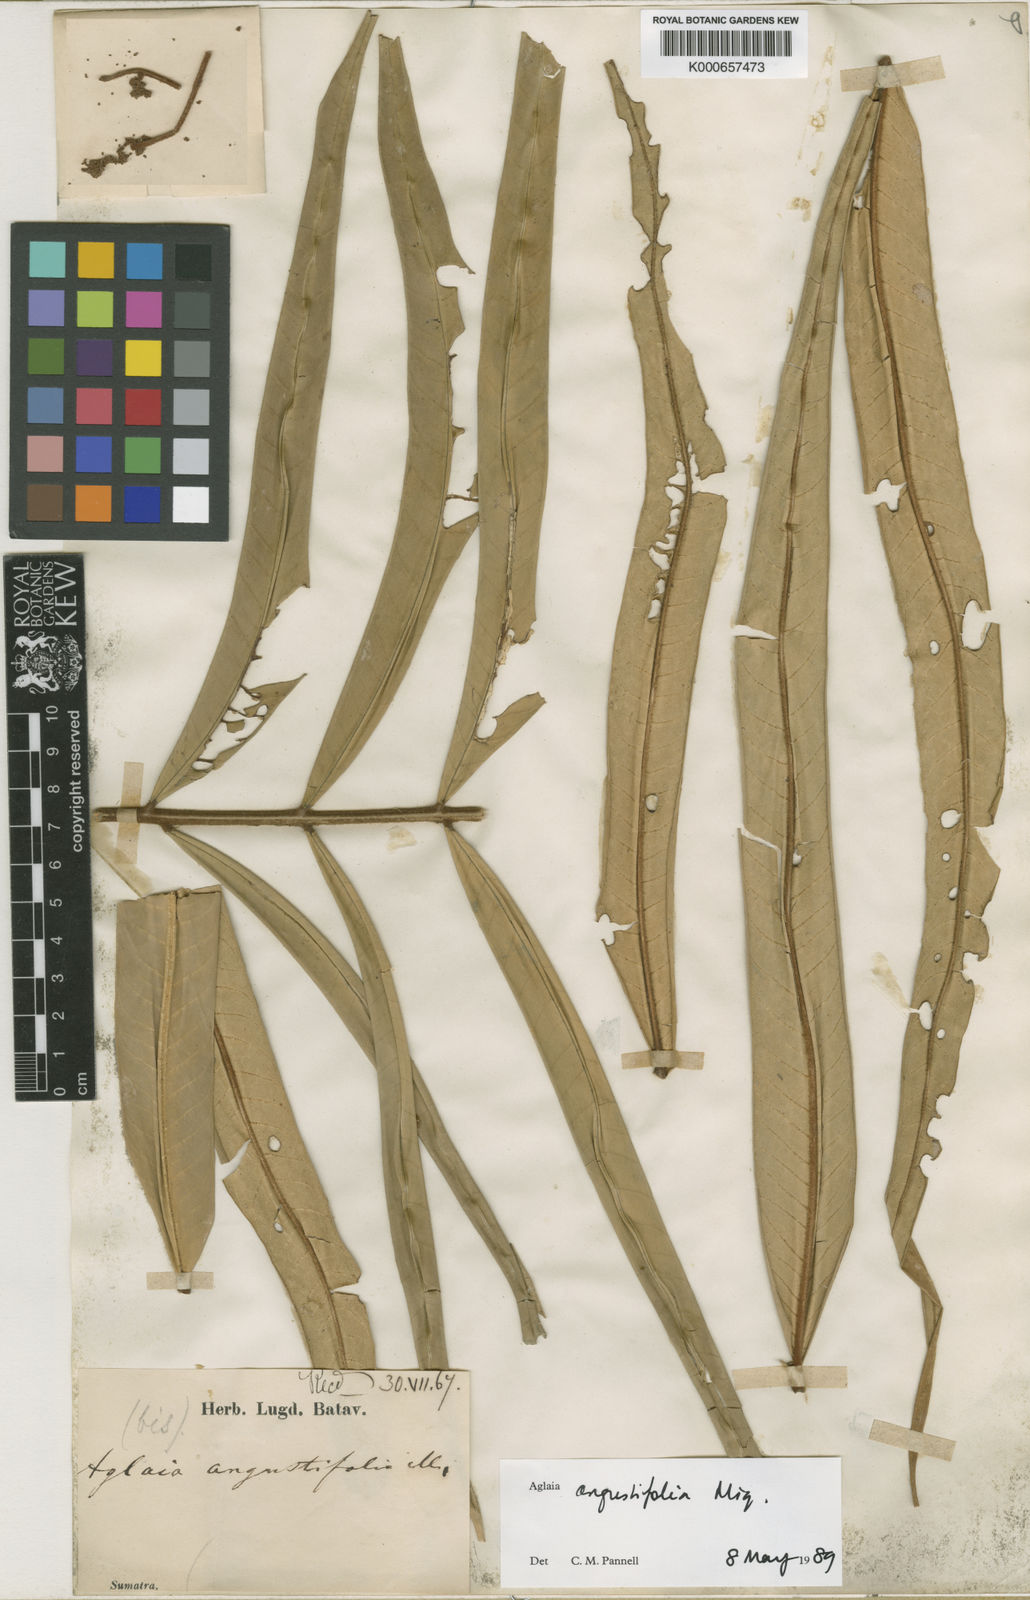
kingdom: Plantae
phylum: Tracheophyta
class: Magnoliopsida
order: Sapindales
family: Meliaceae
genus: Aglaia
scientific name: Aglaia angustifolia
